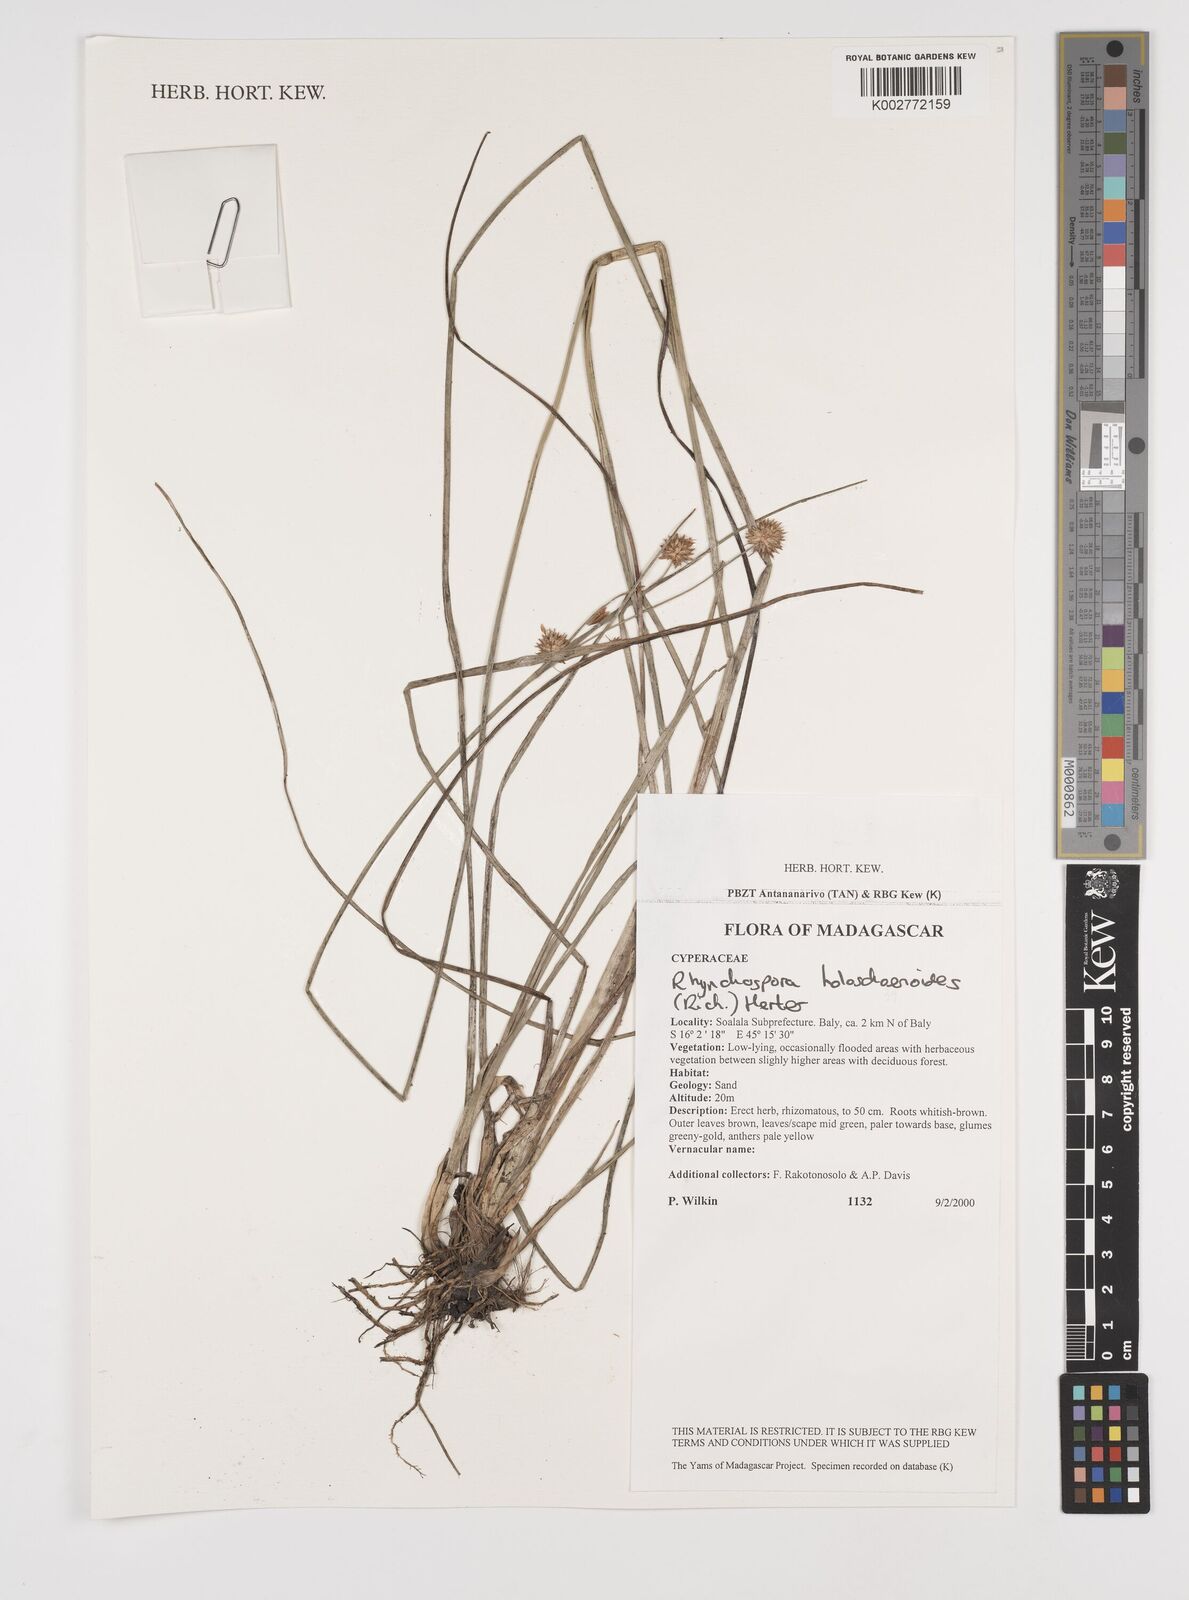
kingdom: Plantae
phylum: Tracheophyta
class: Liliopsida
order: Poales
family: Cyperaceae
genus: Rhynchospora
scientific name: Rhynchospora holoschoenoides
